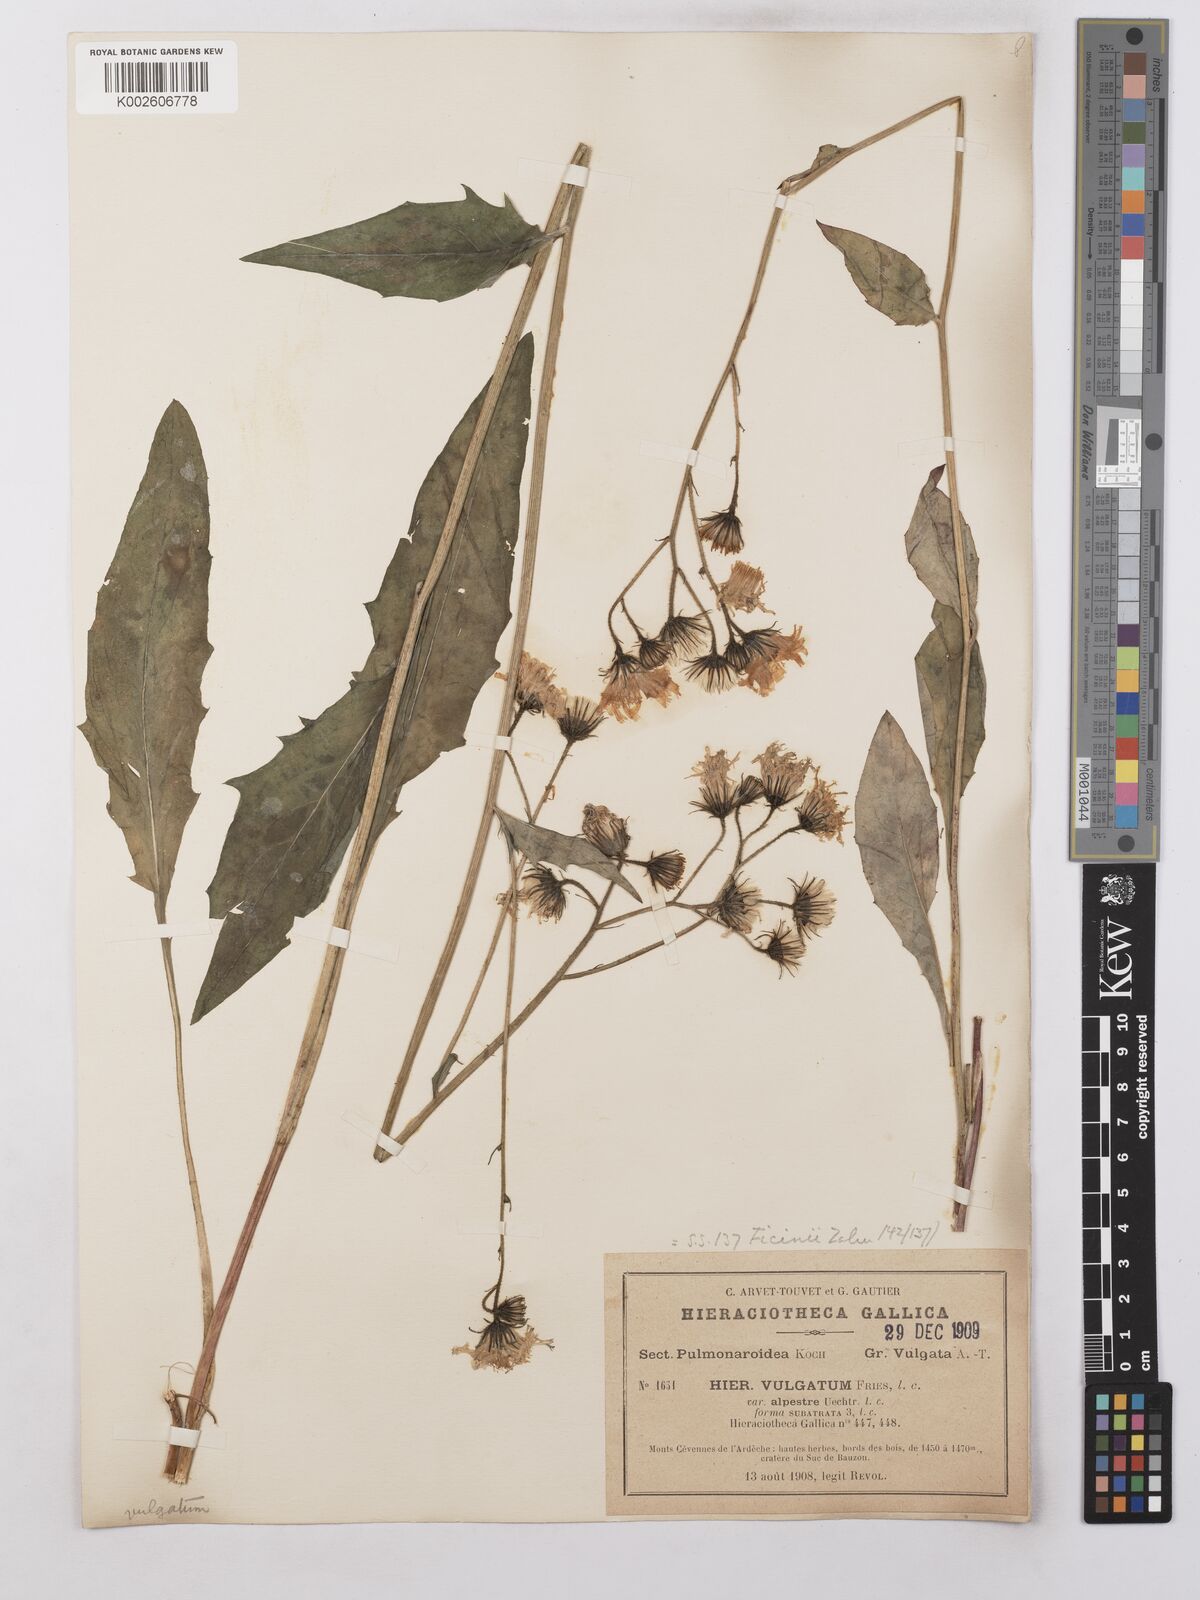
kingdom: Plantae
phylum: Tracheophyta
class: Magnoliopsida
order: Asterales
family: Asteraceae
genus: Hieracium
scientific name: Hieracium lachenalii
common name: Common hawkweed
